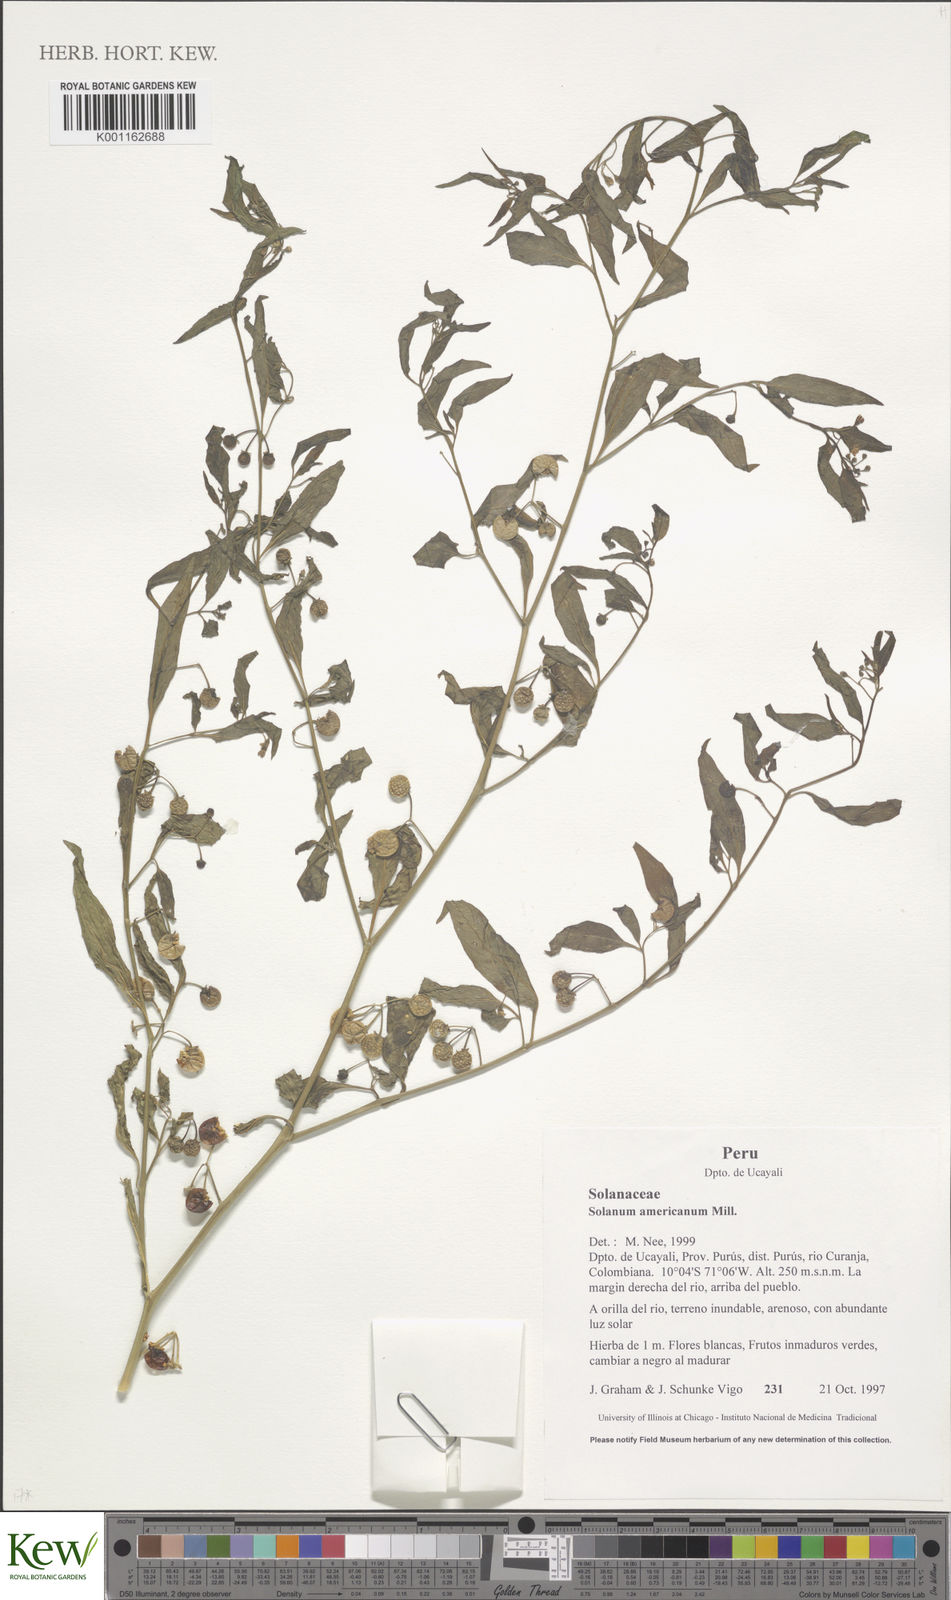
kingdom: Plantae
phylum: Tracheophyta
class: Magnoliopsida
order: Solanales
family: Solanaceae
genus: Solanum
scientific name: Solanum americanum
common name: American black nightshade
